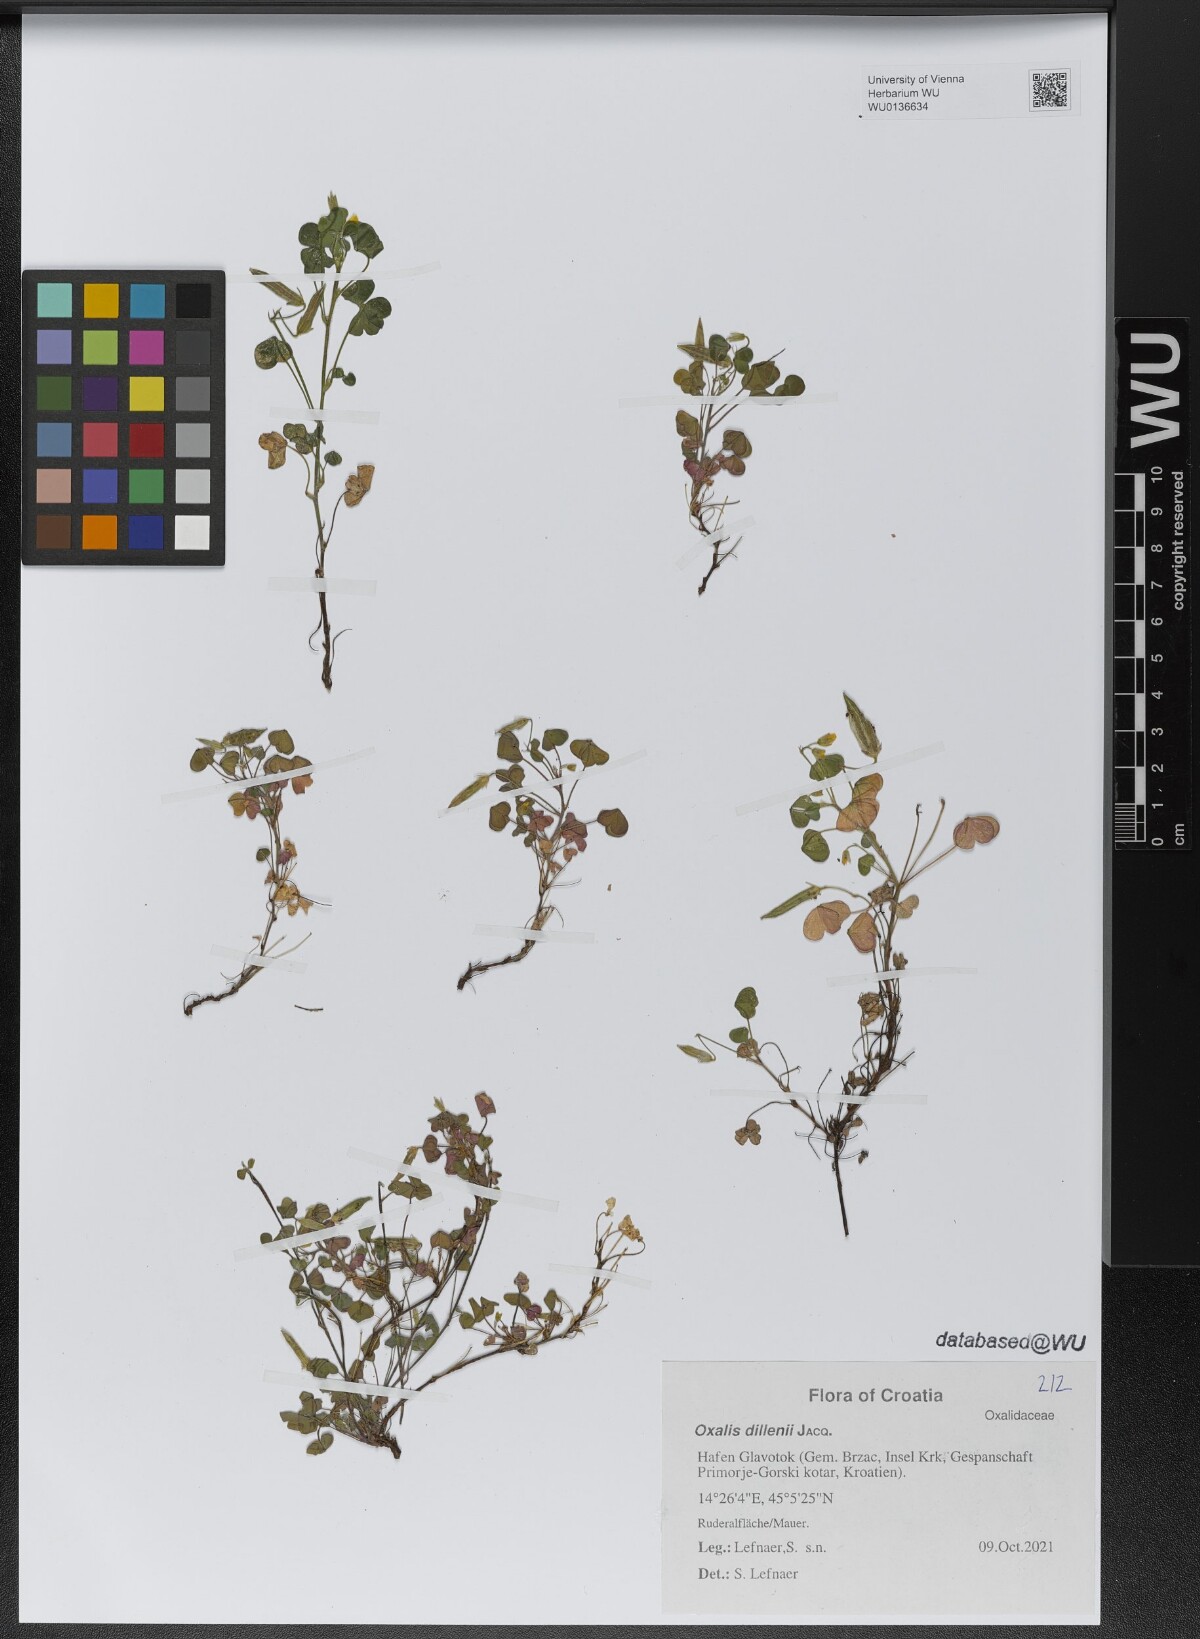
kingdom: Plantae
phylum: Tracheophyta
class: Magnoliopsida
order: Oxalidales
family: Oxalidaceae
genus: Oxalis
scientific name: Oxalis dillenii
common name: Sussex yellow-sorrel
